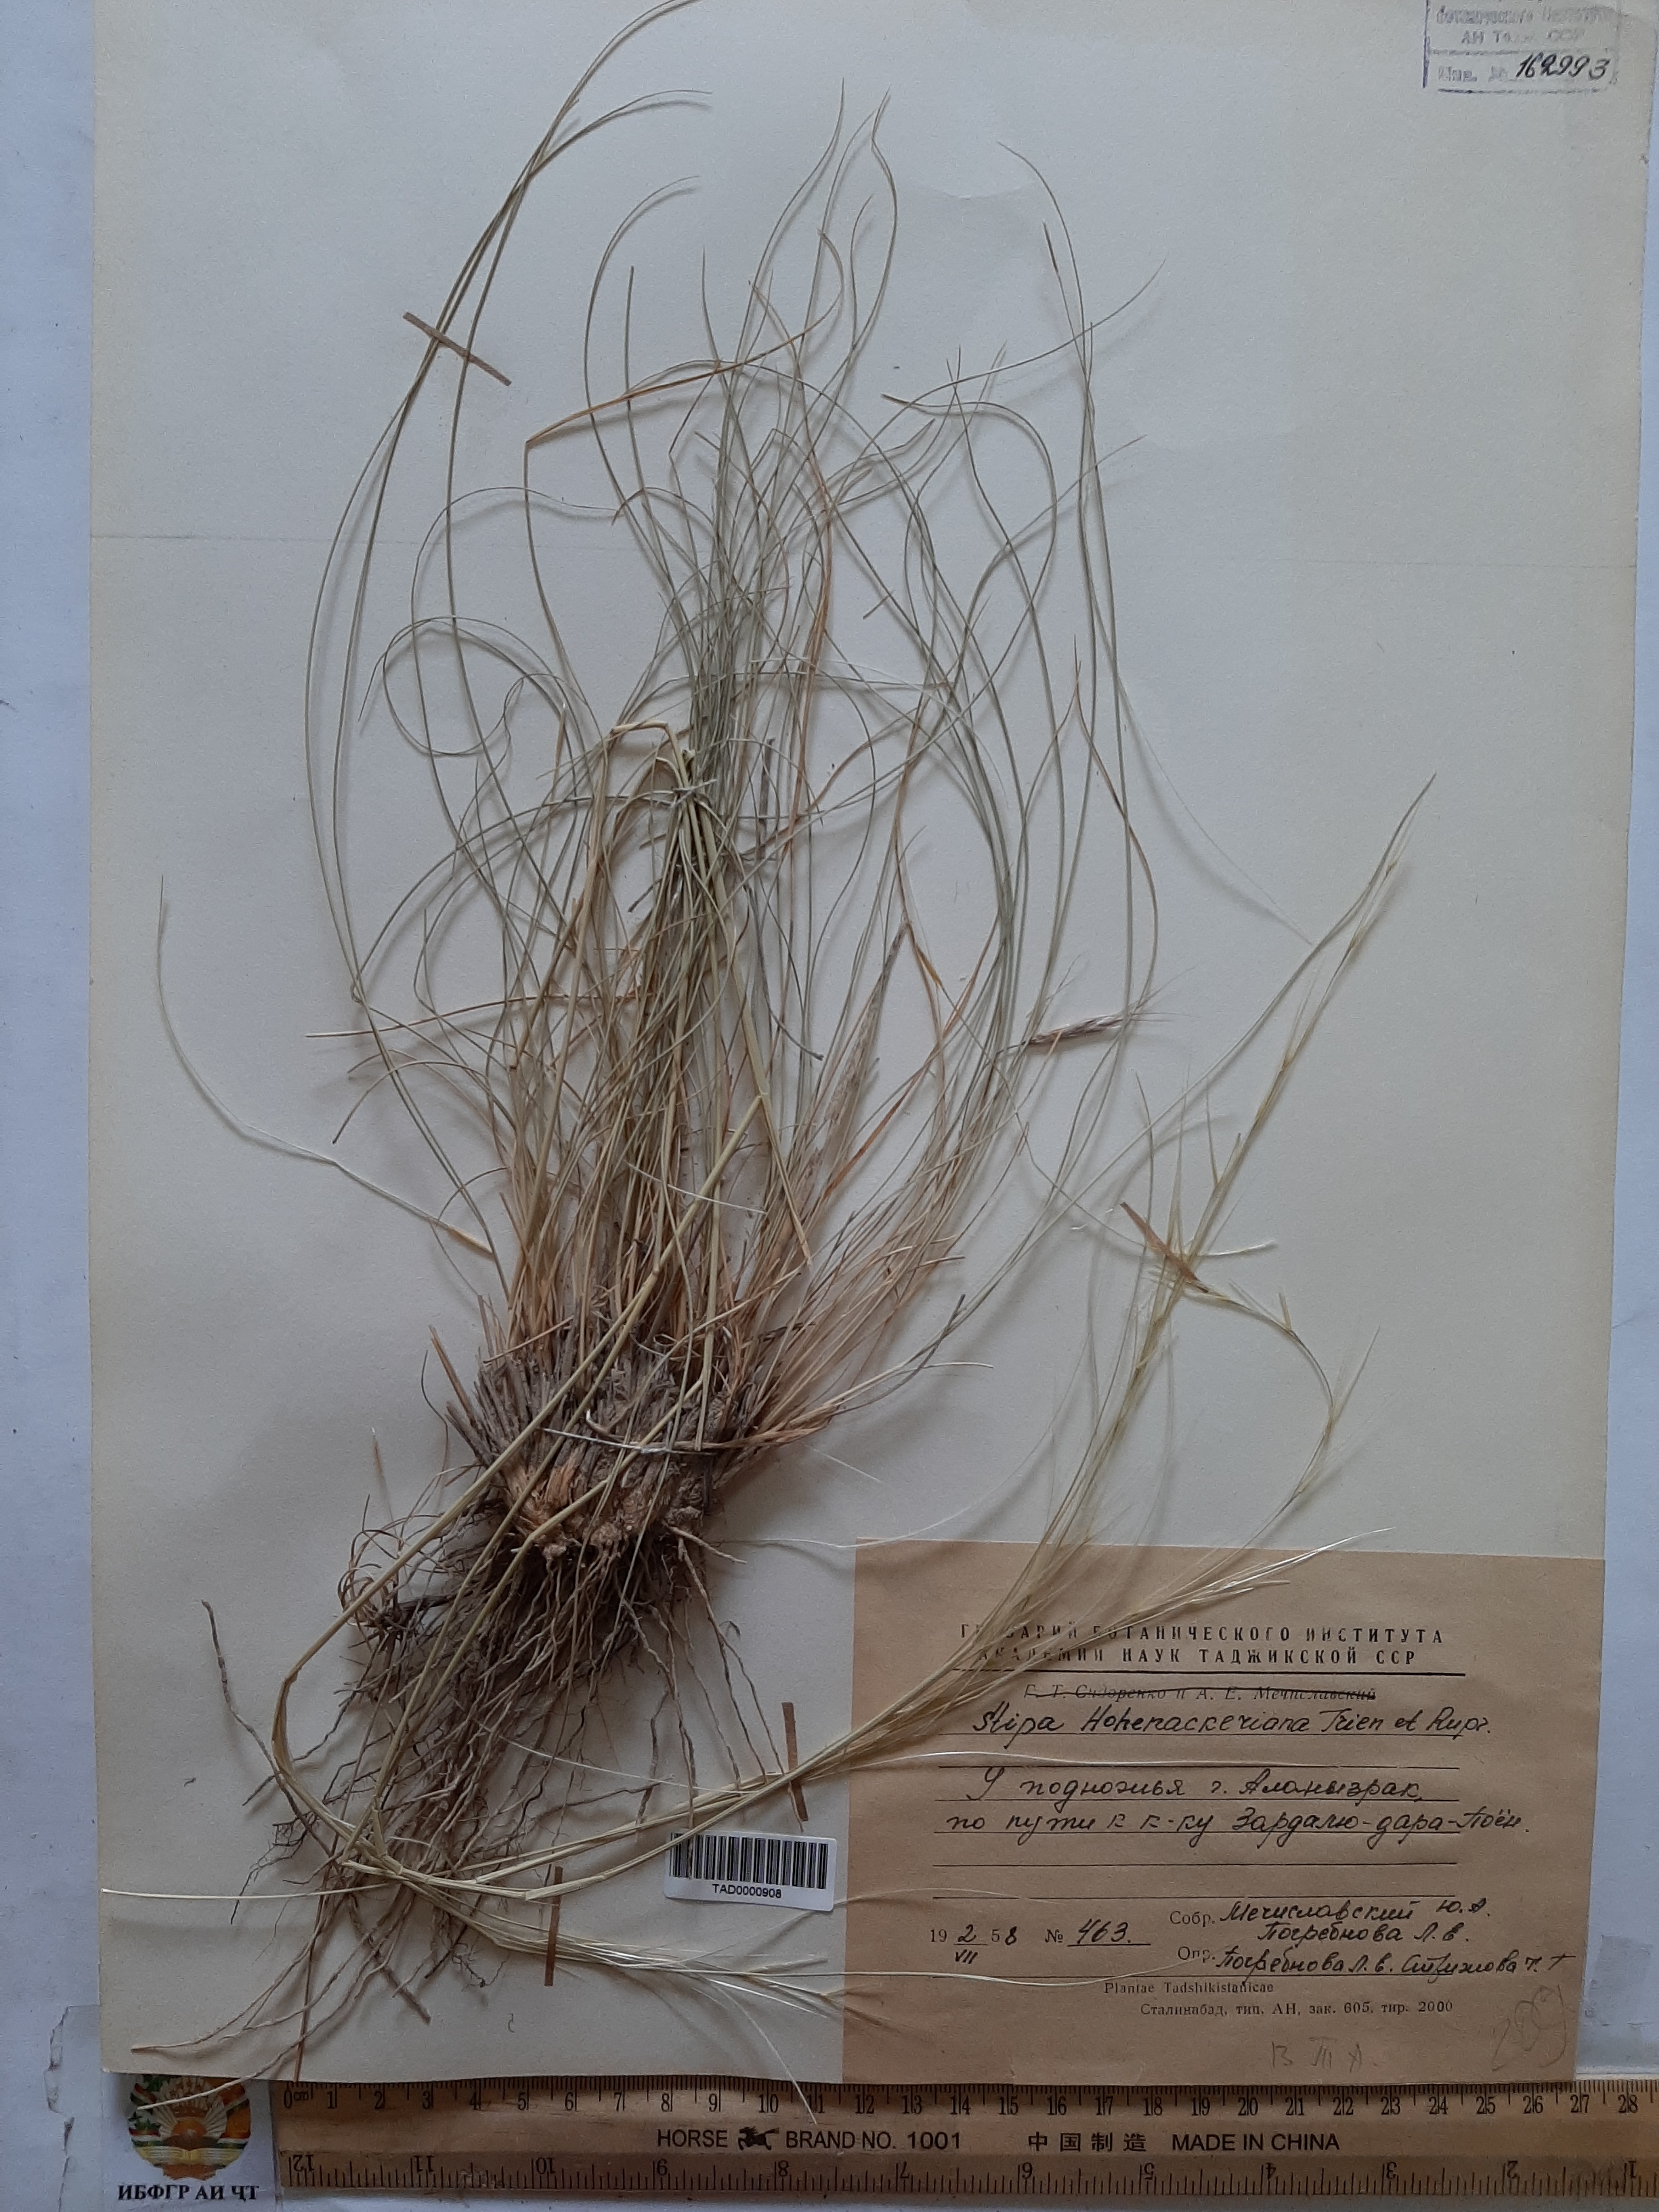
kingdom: Plantae
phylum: Tracheophyta
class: Liliopsida
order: Poales
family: Poaceae
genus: Stipa
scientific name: Stipa hohenackeriana
